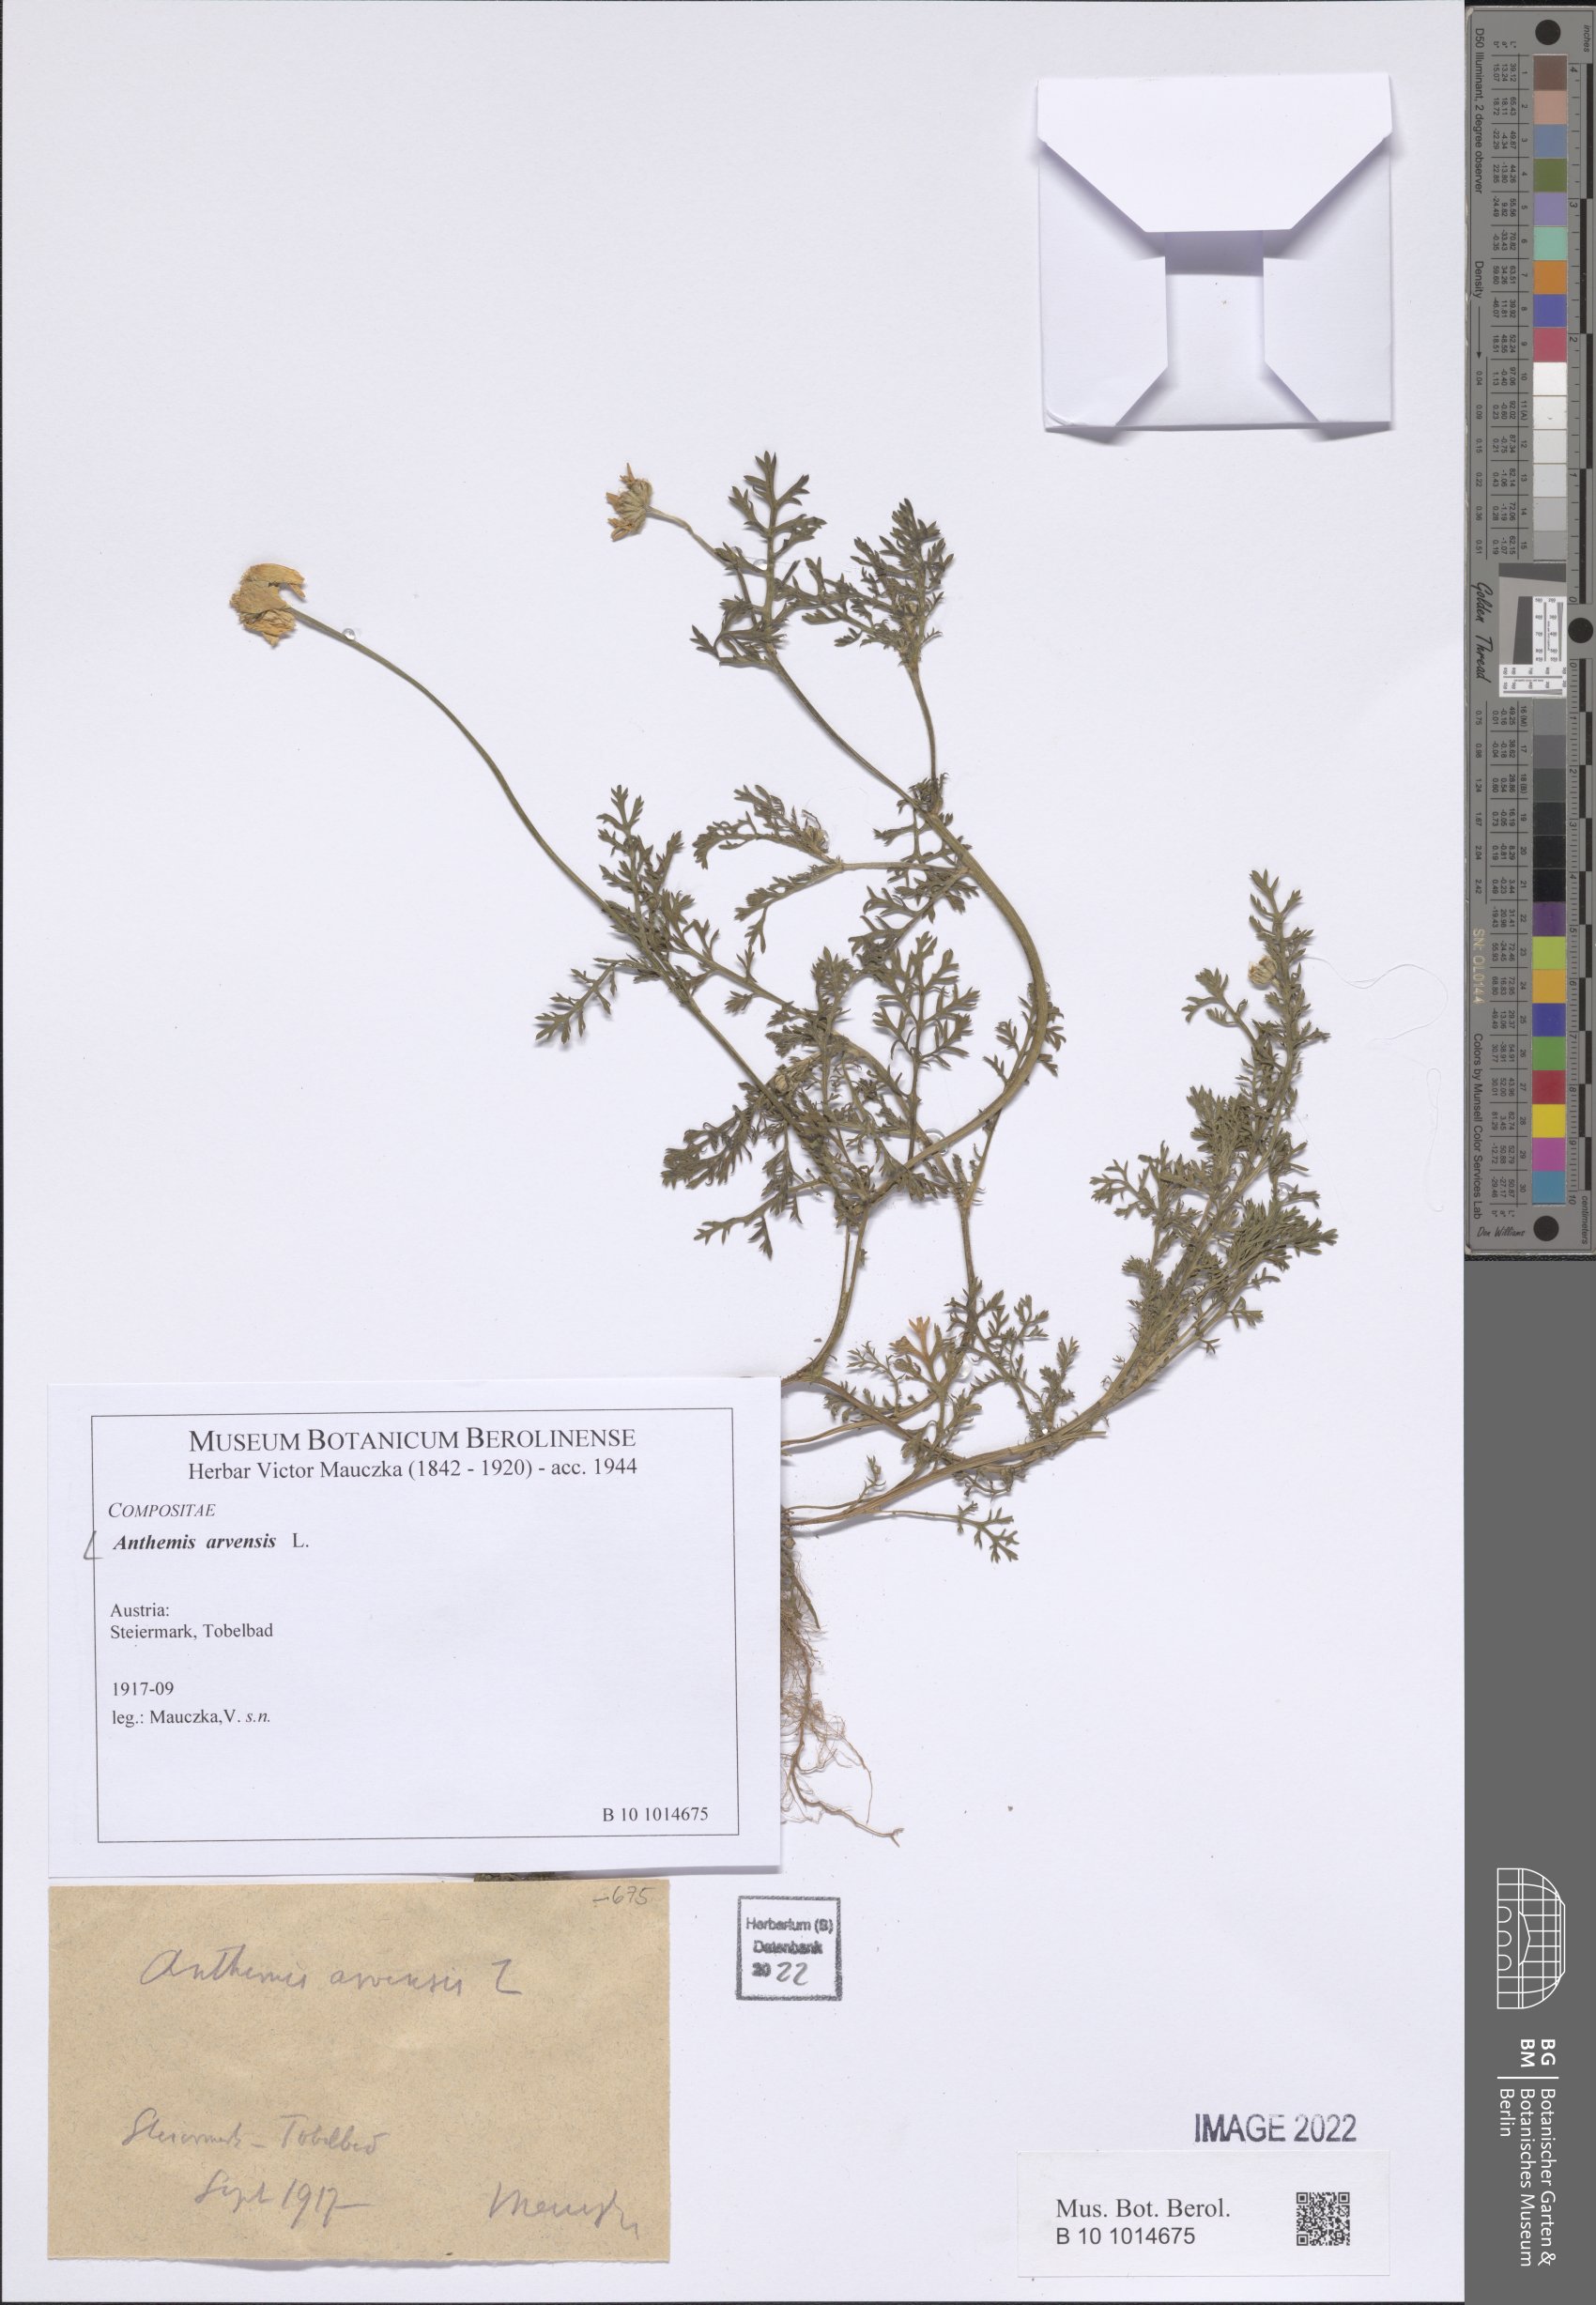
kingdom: Plantae
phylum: Tracheophyta
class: Magnoliopsida
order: Asterales
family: Asteraceae
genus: Anthemis
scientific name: Anthemis arvensis
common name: Corn chamomile
